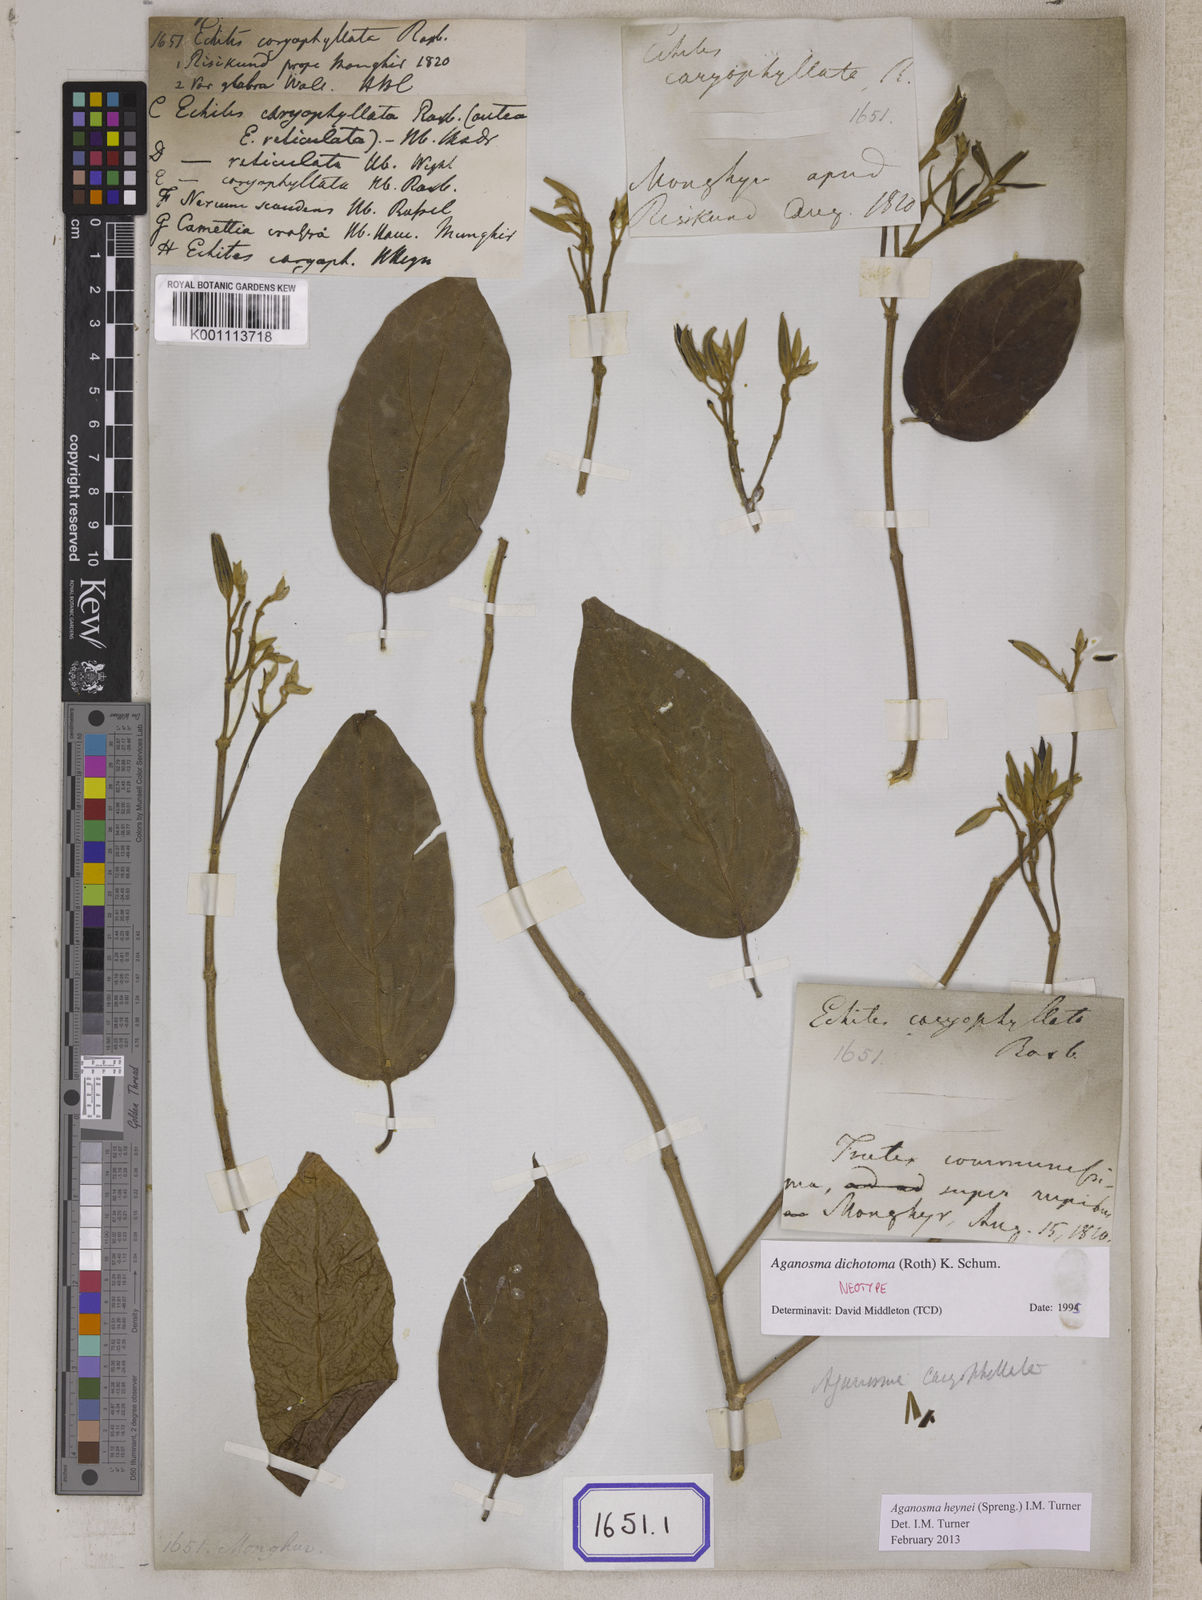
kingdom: Plantae
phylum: Tracheophyta
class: Magnoliopsida
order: Gentianales
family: Apocynaceae
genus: Kamettia
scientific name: Kamettia caryophyllata
